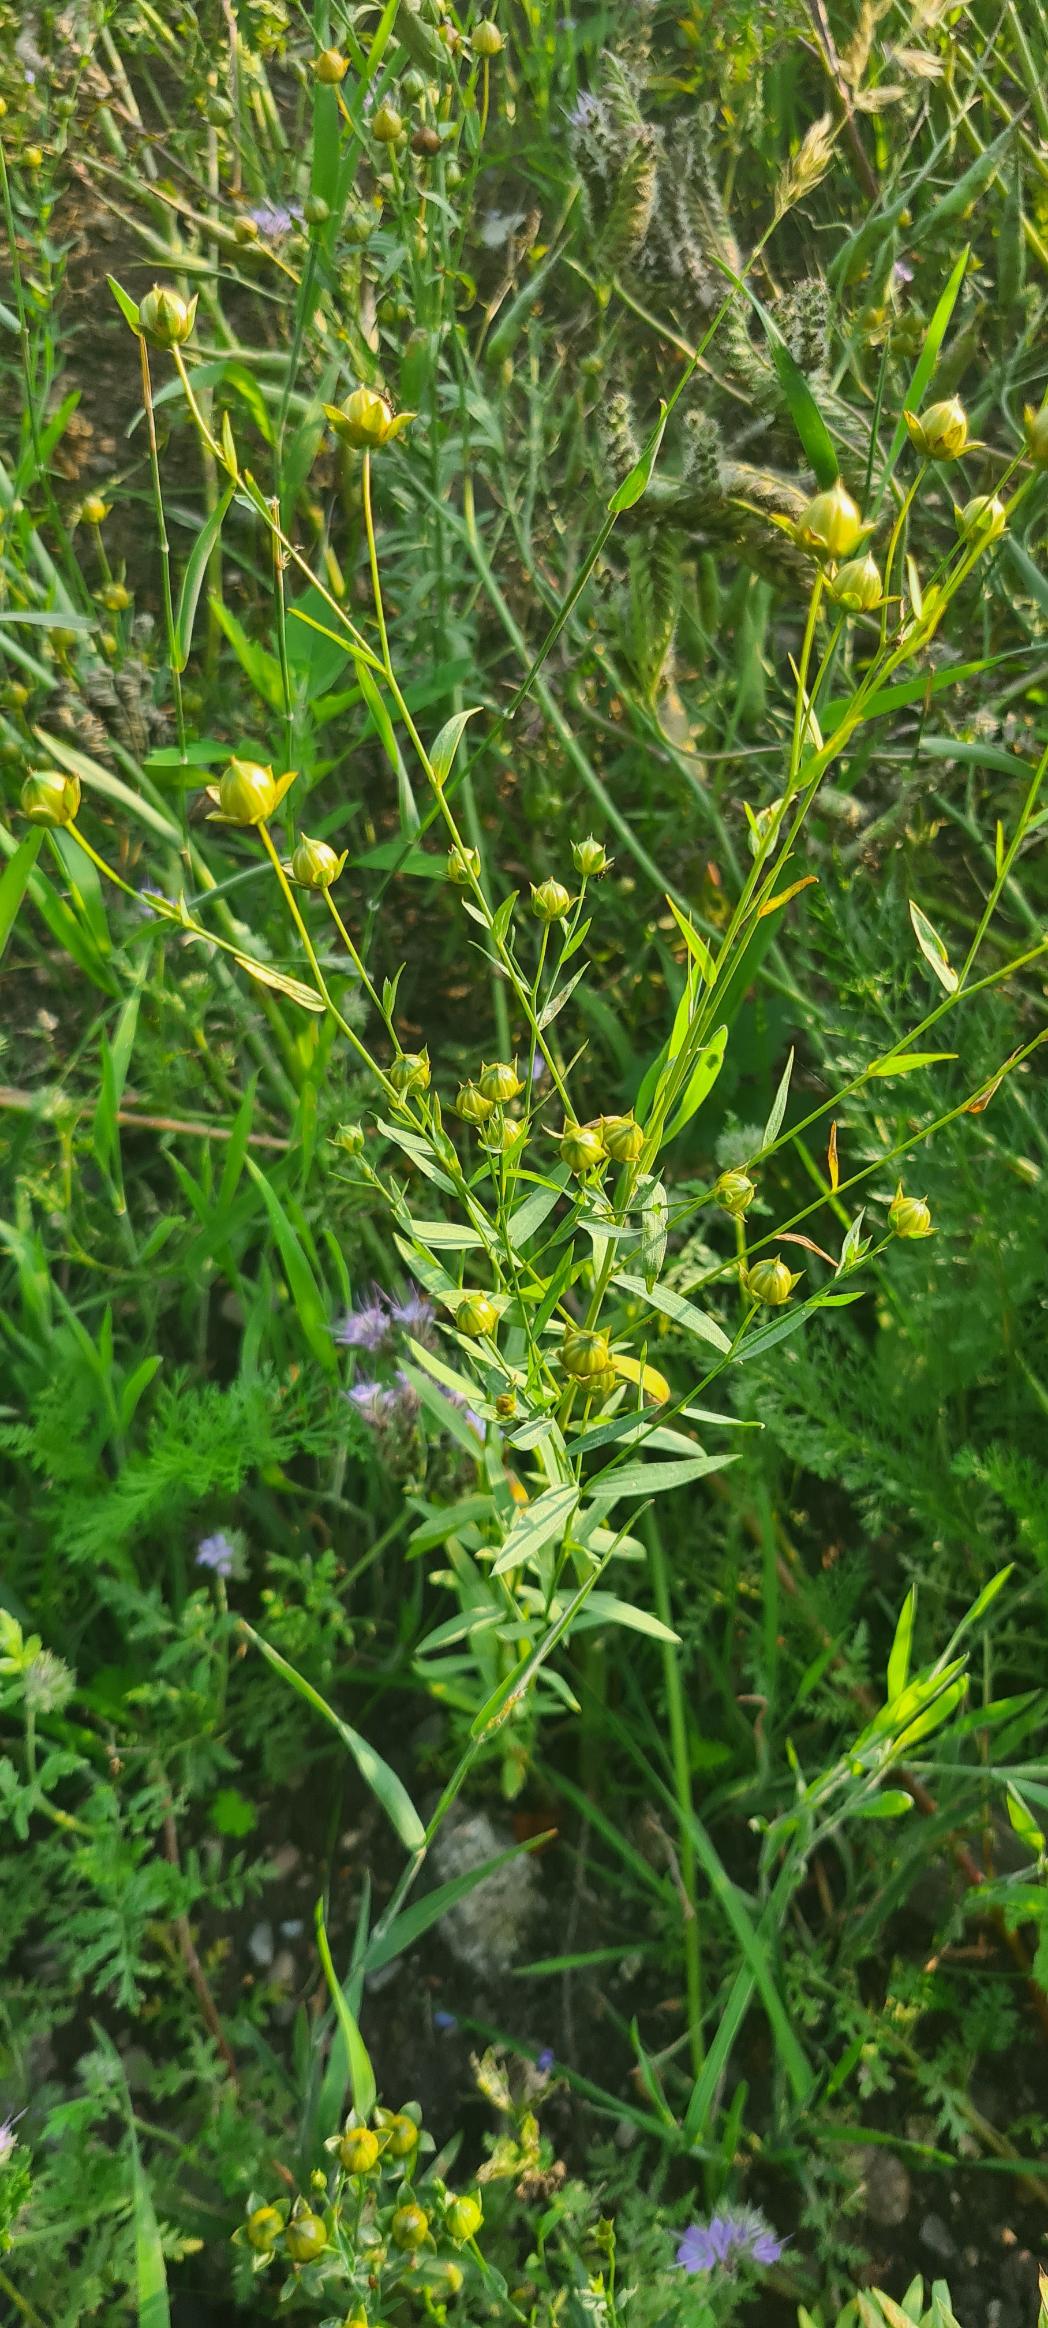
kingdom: Plantae
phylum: Tracheophyta
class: Magnoliopsida
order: Malpighiales
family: Linaceae
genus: Linum
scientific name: Linum usitatissimum
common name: Almindelig hør
